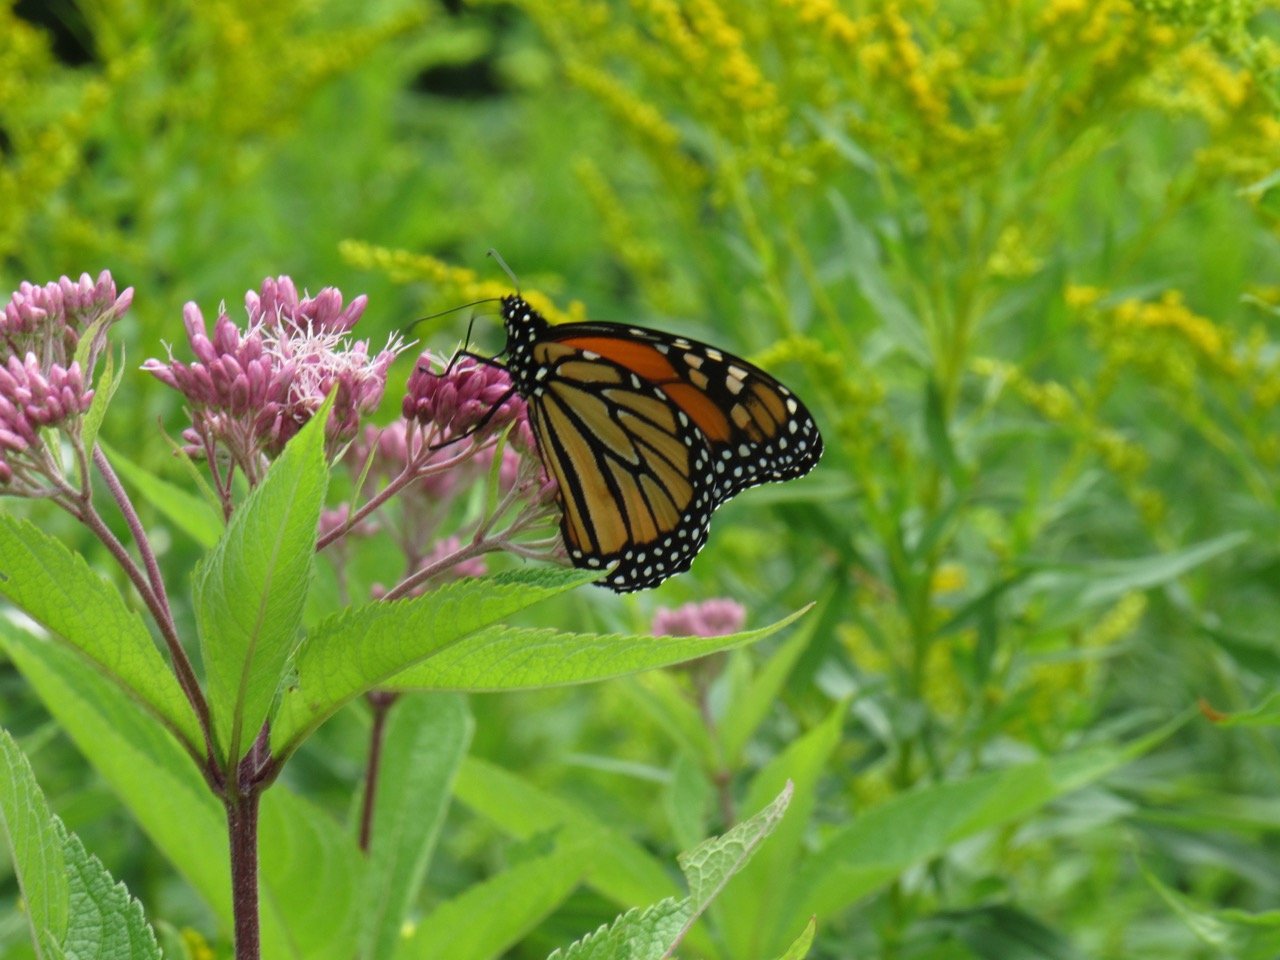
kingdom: Animalia
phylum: Arthropoda
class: Insecta
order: Lepidoptera
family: Nymphalidae
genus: Danaus
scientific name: Danaus plexippus
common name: Monarch
